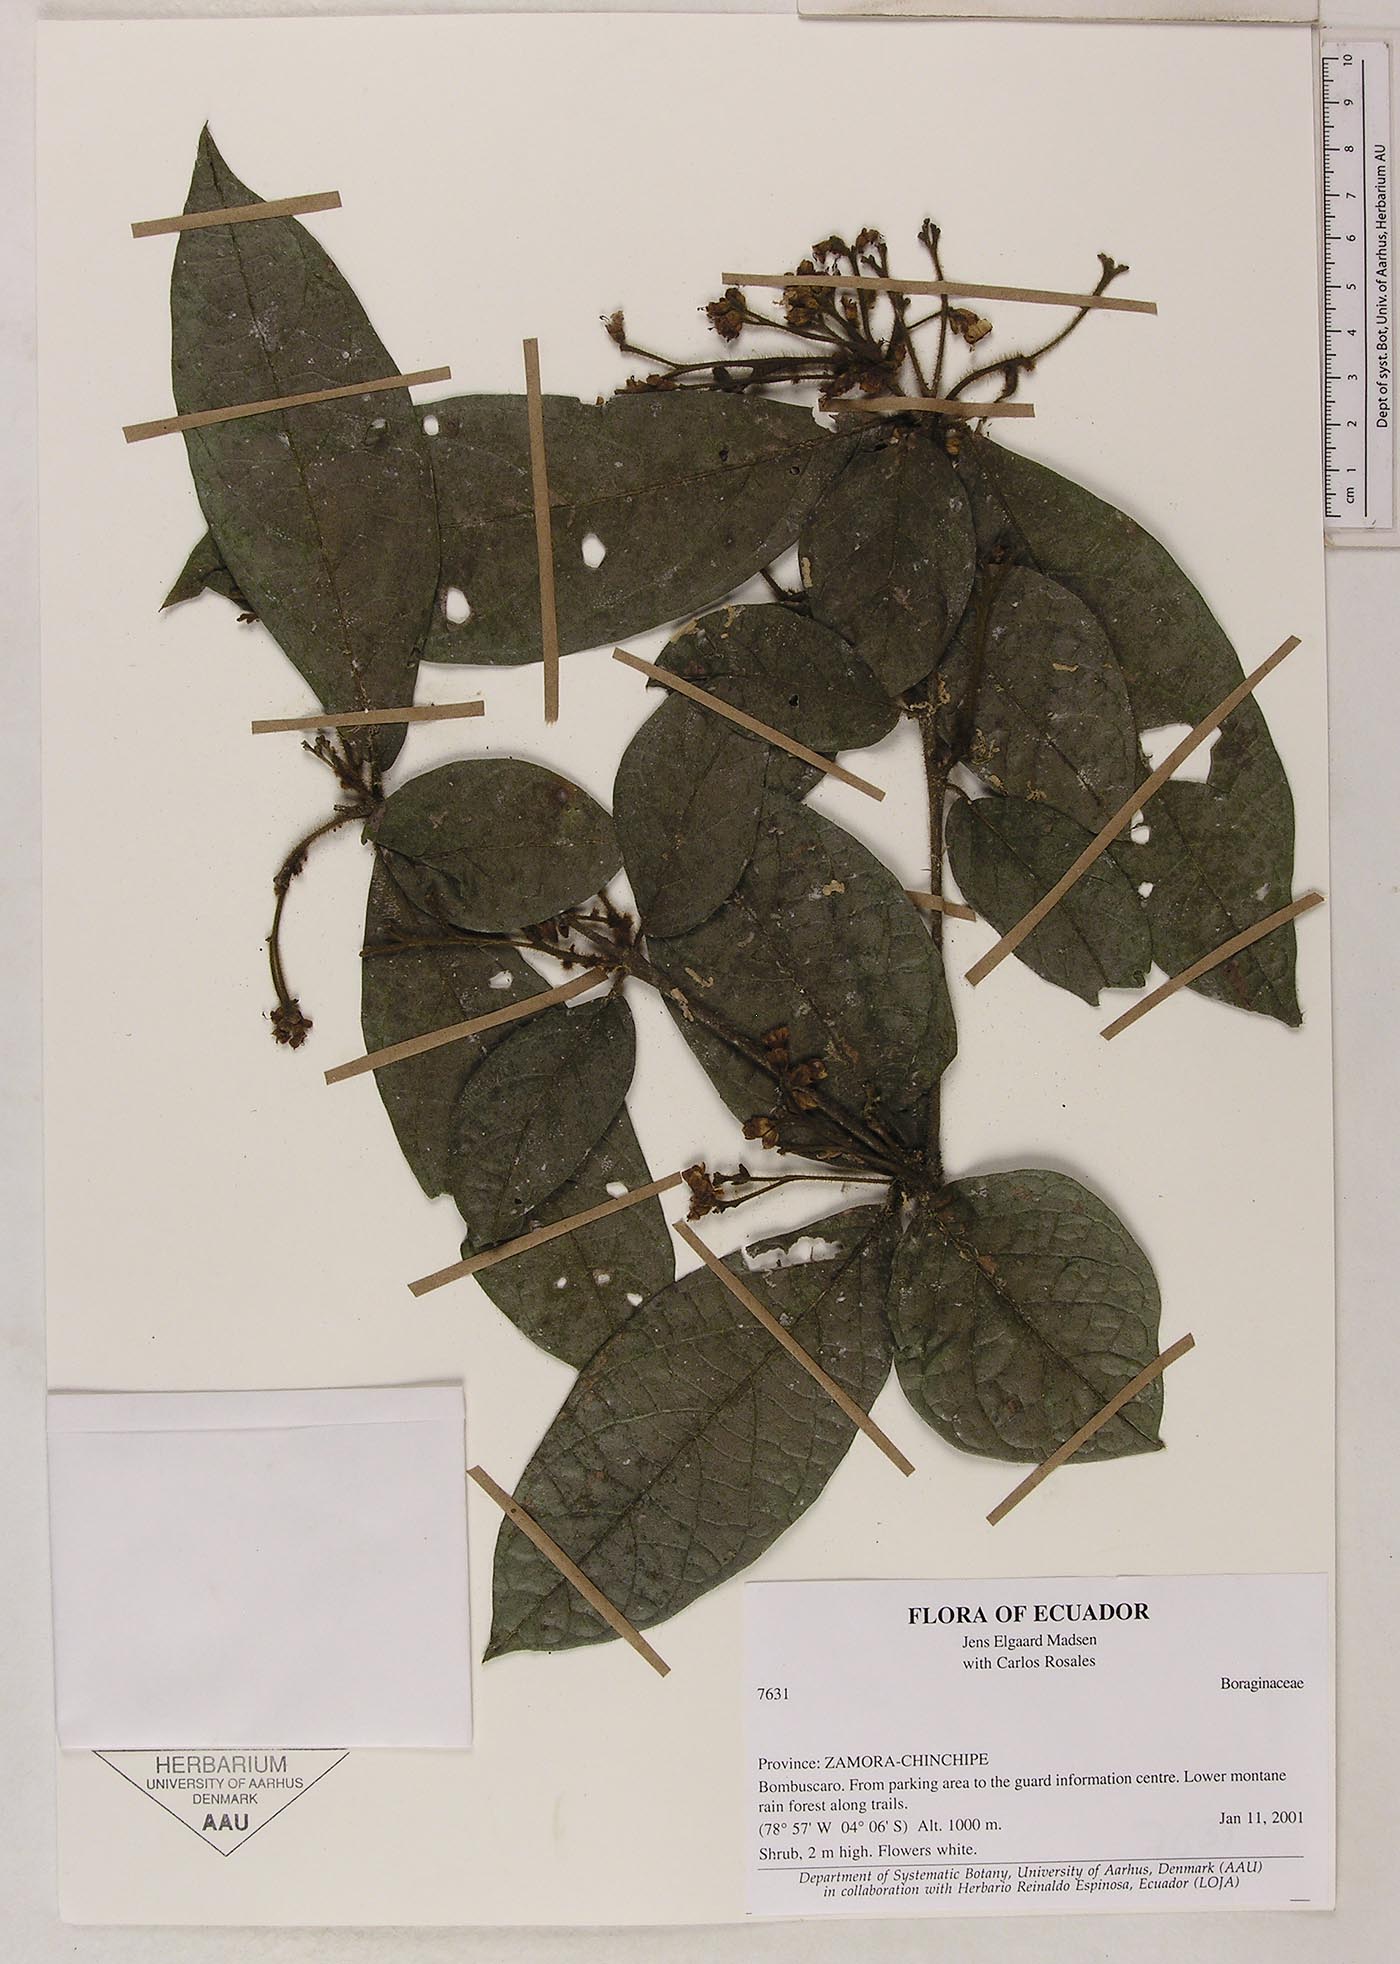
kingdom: Plantae
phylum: Tracheophyta
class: Magnoliopsida
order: Boraginales
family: Cordiaceae
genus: Cordia
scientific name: Cordia
